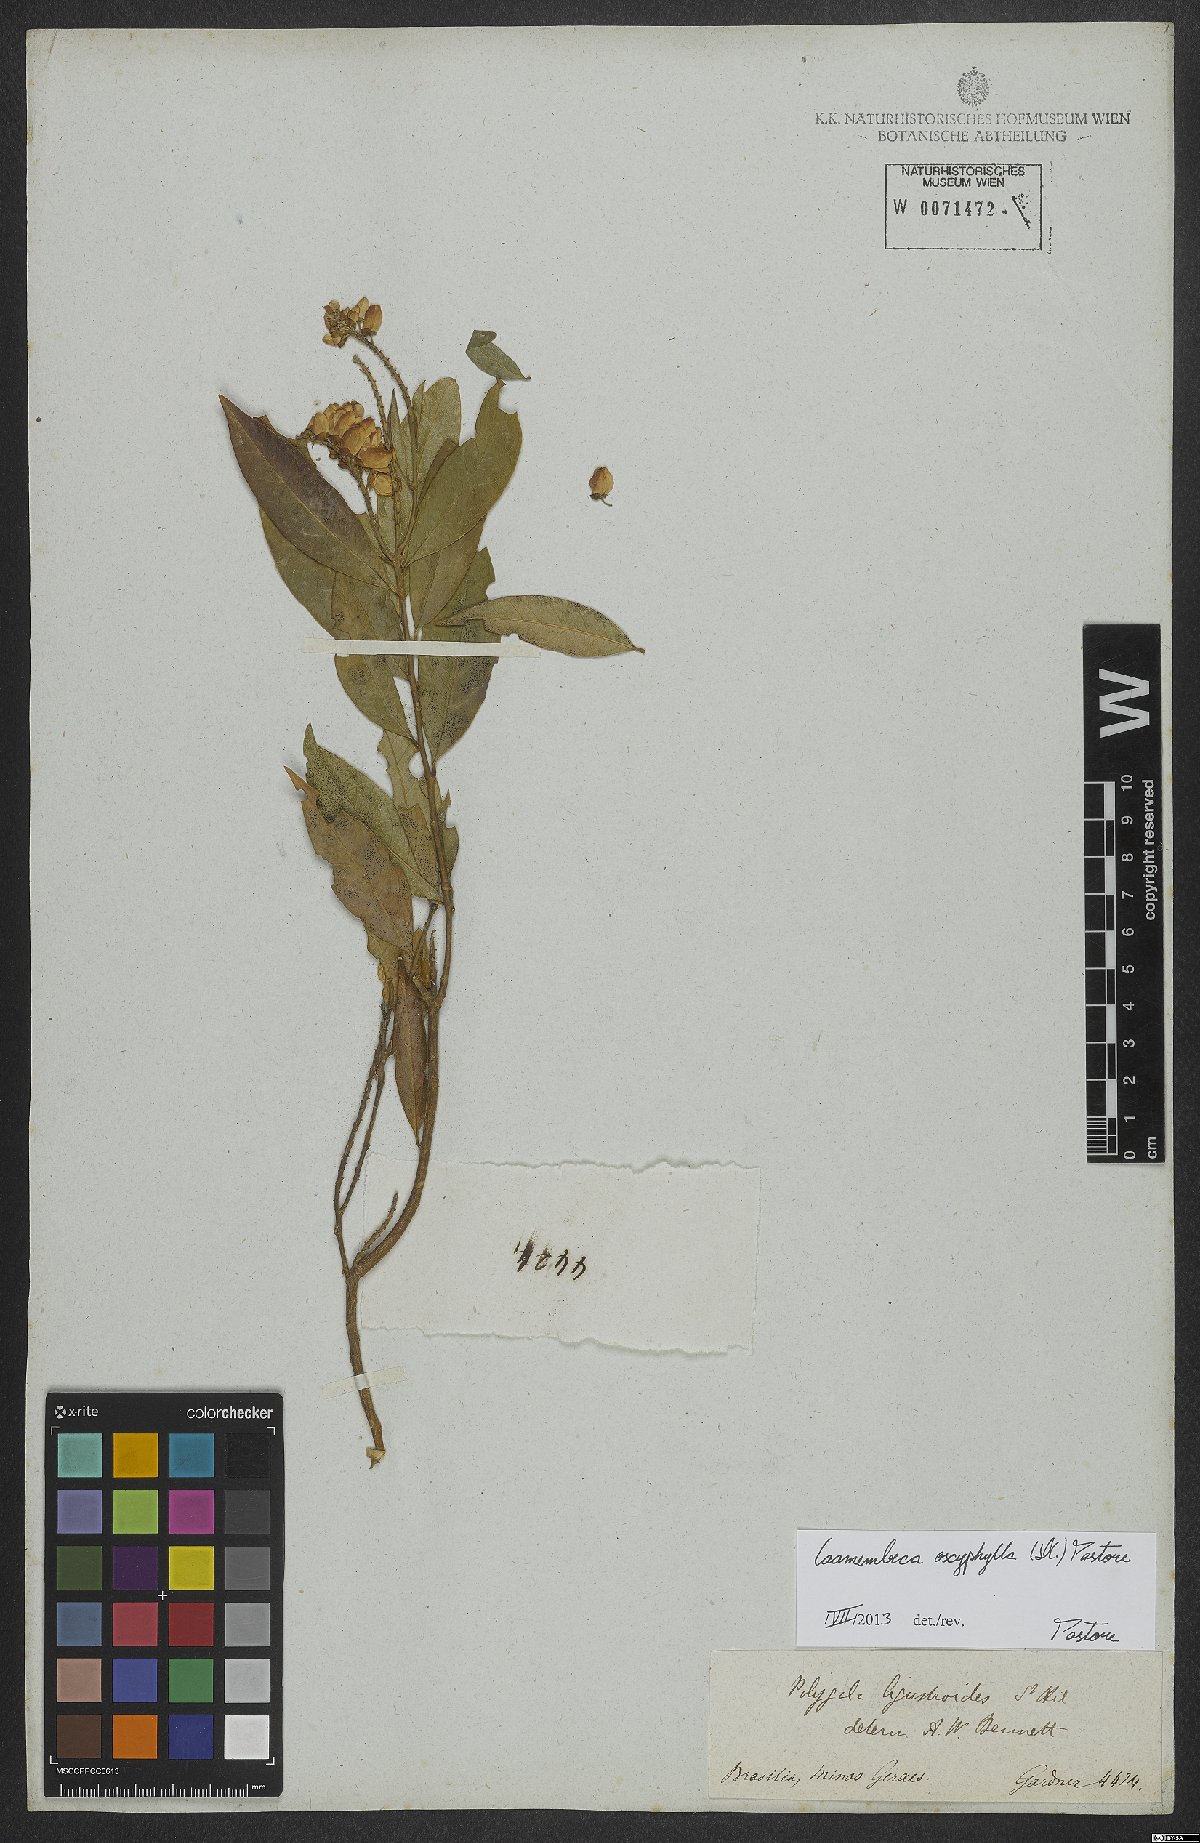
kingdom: Plantae
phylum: Tracheophyta
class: Magnoliopsida
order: Fabales
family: Polygalaceae
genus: Caamembeca
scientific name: Caamembeca oxyphylla
